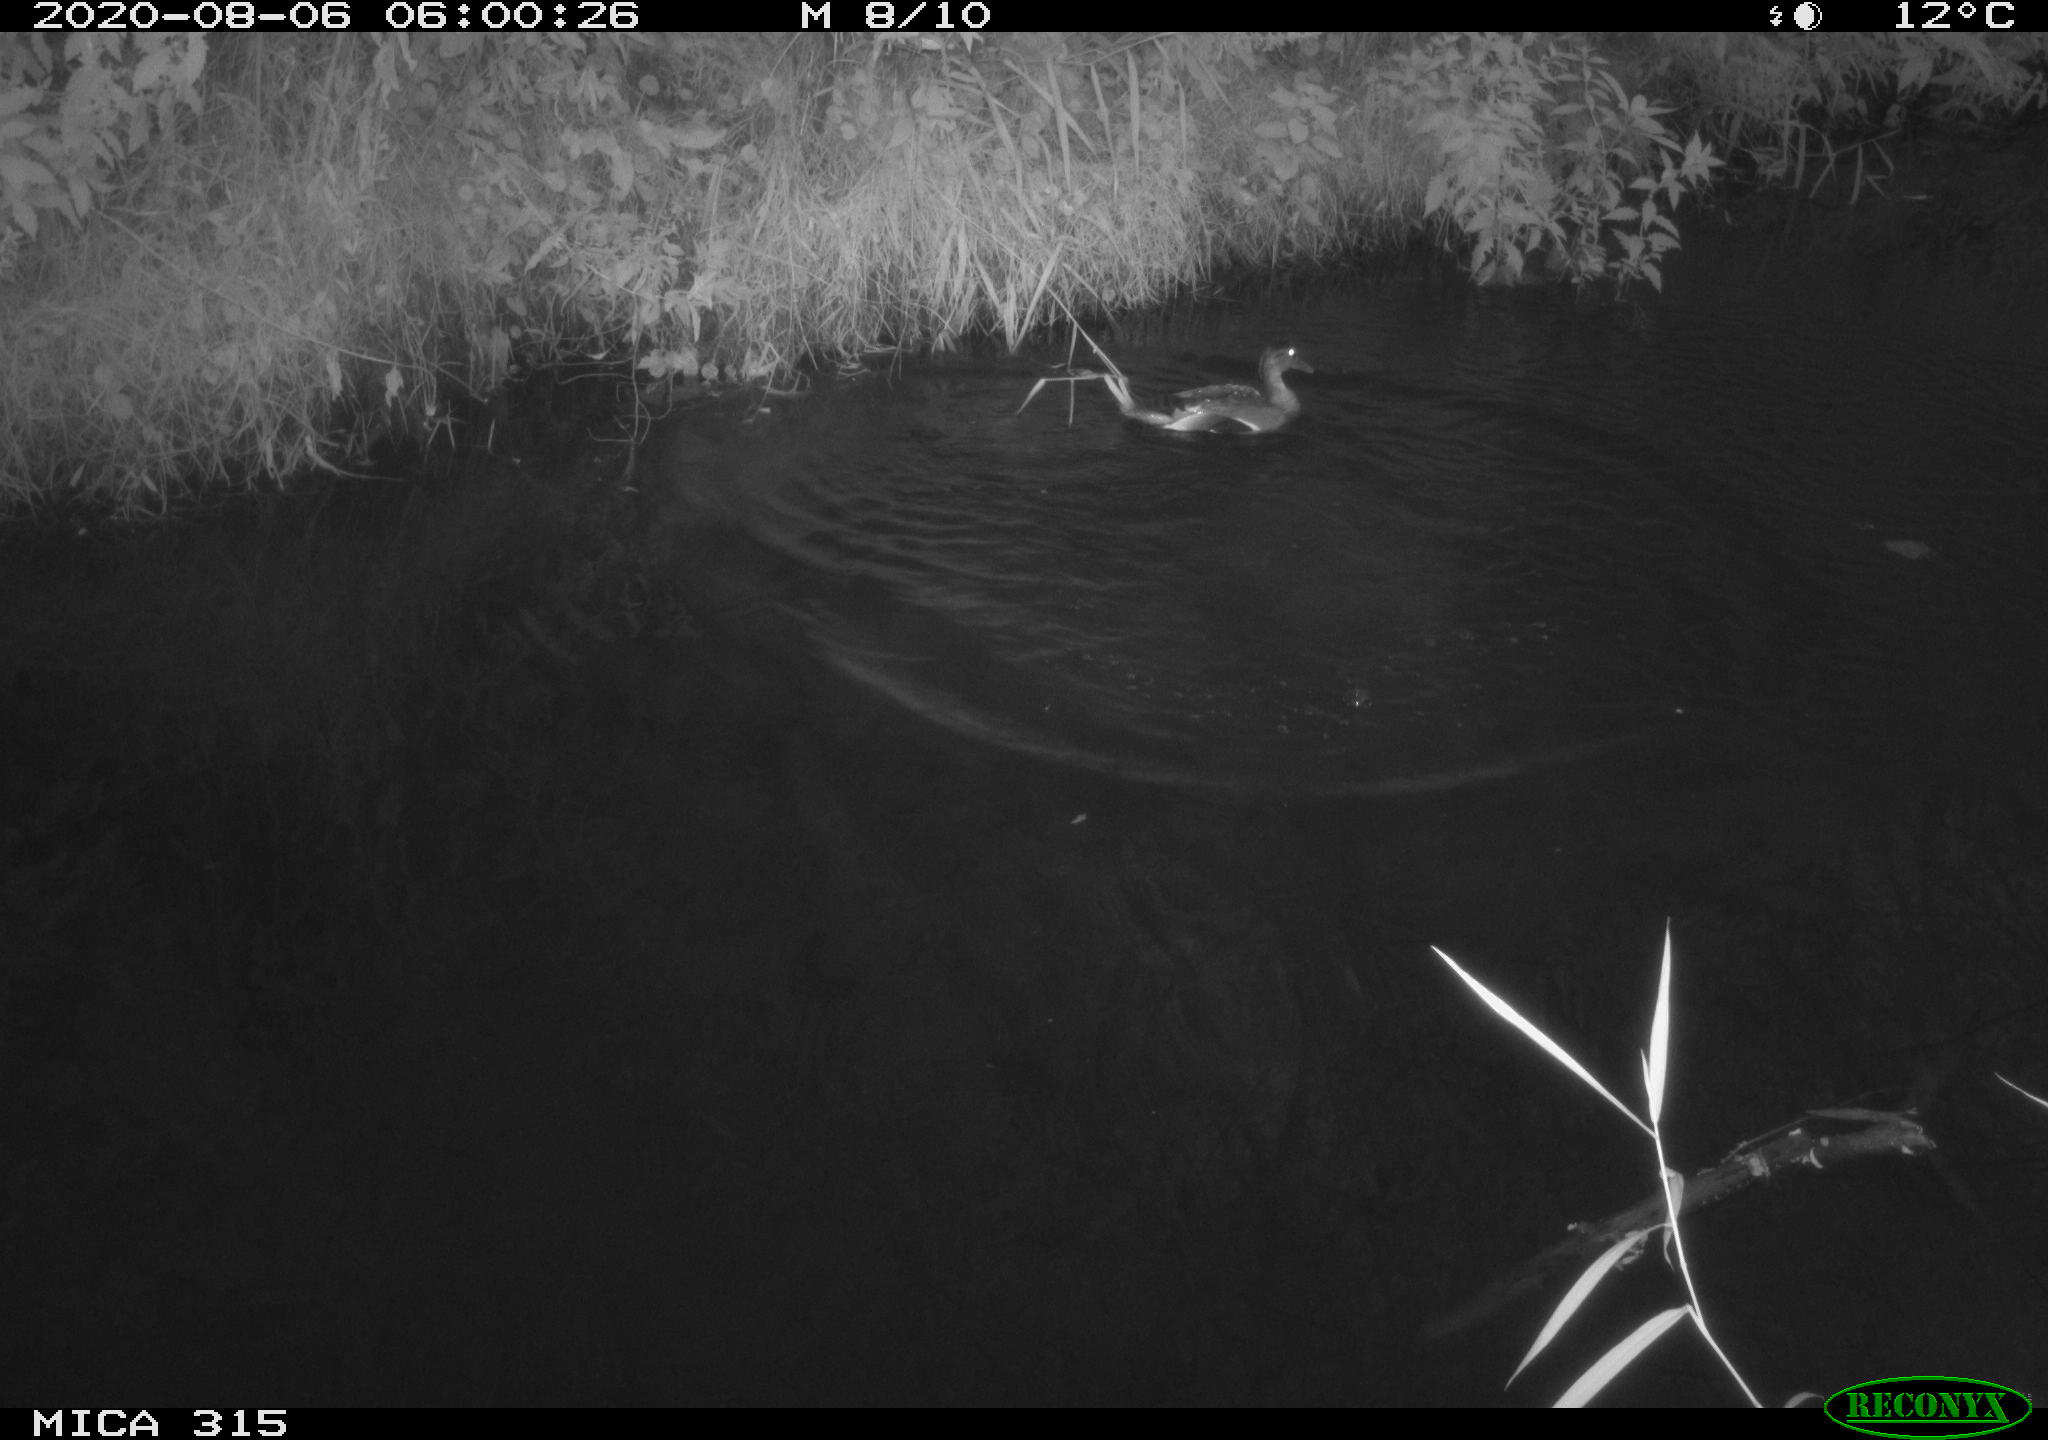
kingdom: Animalia
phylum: Chordata
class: Aves
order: Anseriformes
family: Anatidae
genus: Anas
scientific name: Anas platyrhynchos
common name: Mallard
